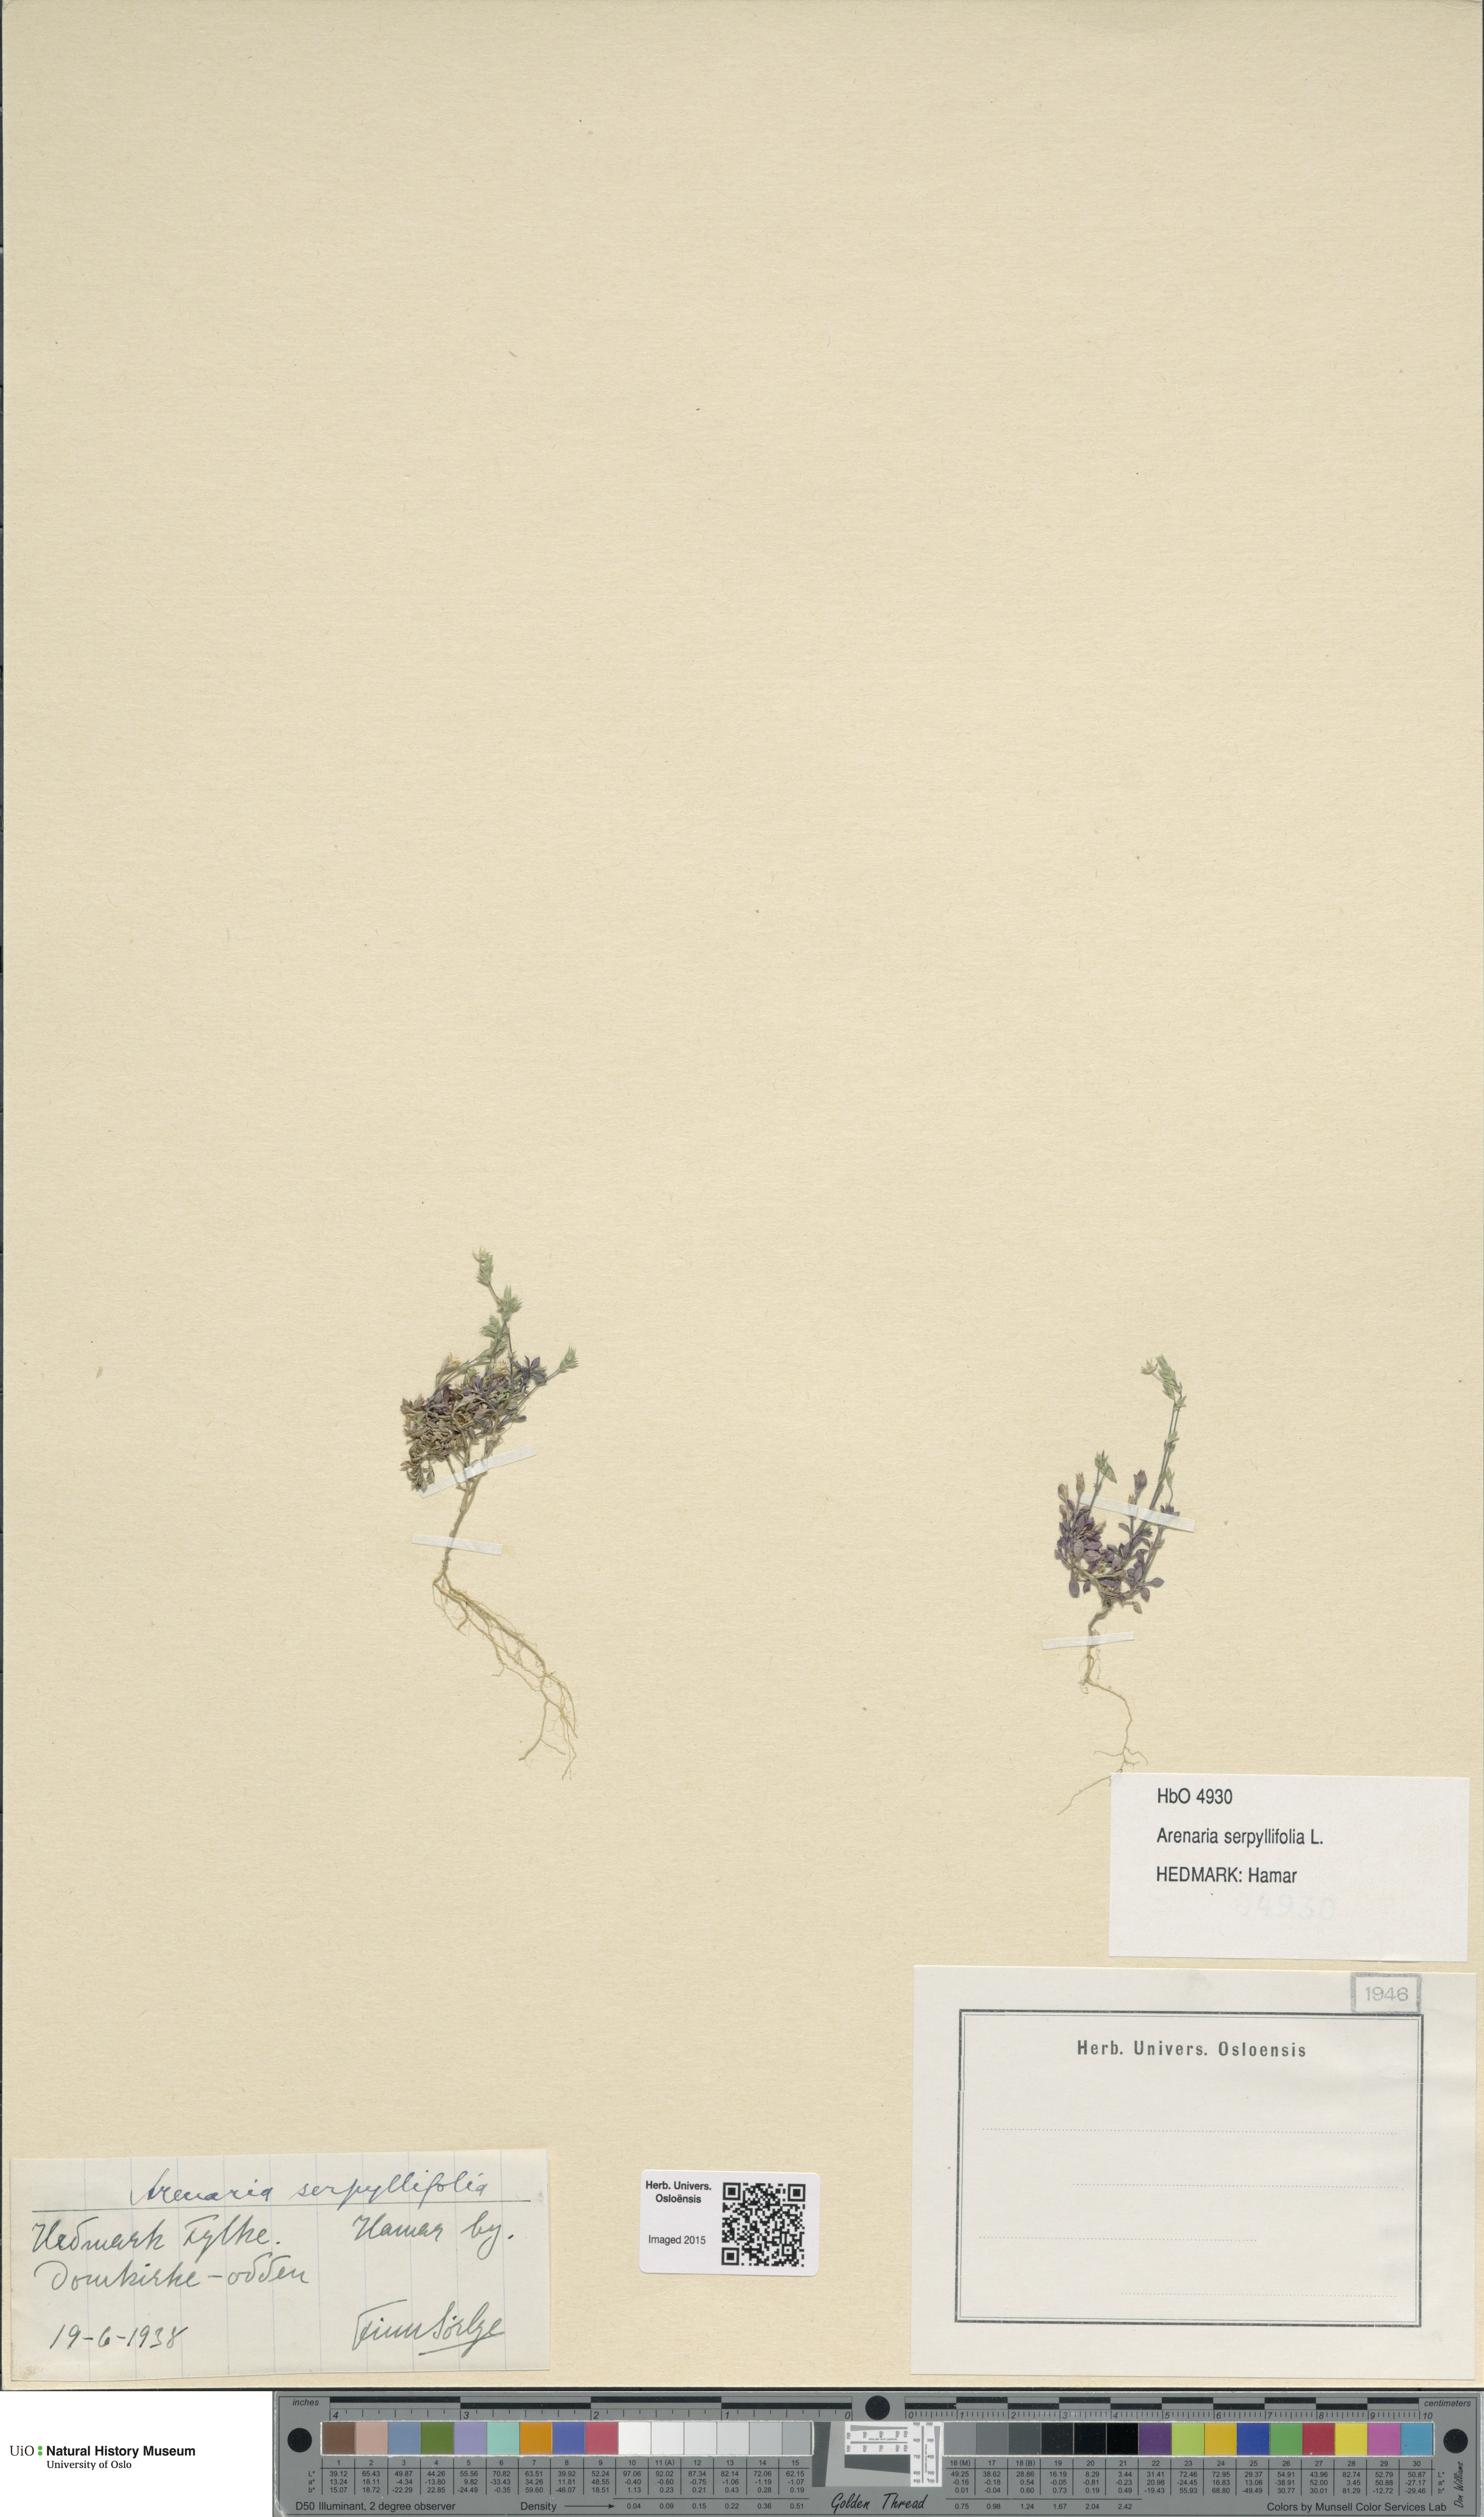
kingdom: Plantae
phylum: Tracheophyta
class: Magnoliopsida
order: Caryophyllales
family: Caryophyllaceae
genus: Arenaria
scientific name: Arenaria serpyllifolia
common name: Thyme-leaved sandwort
